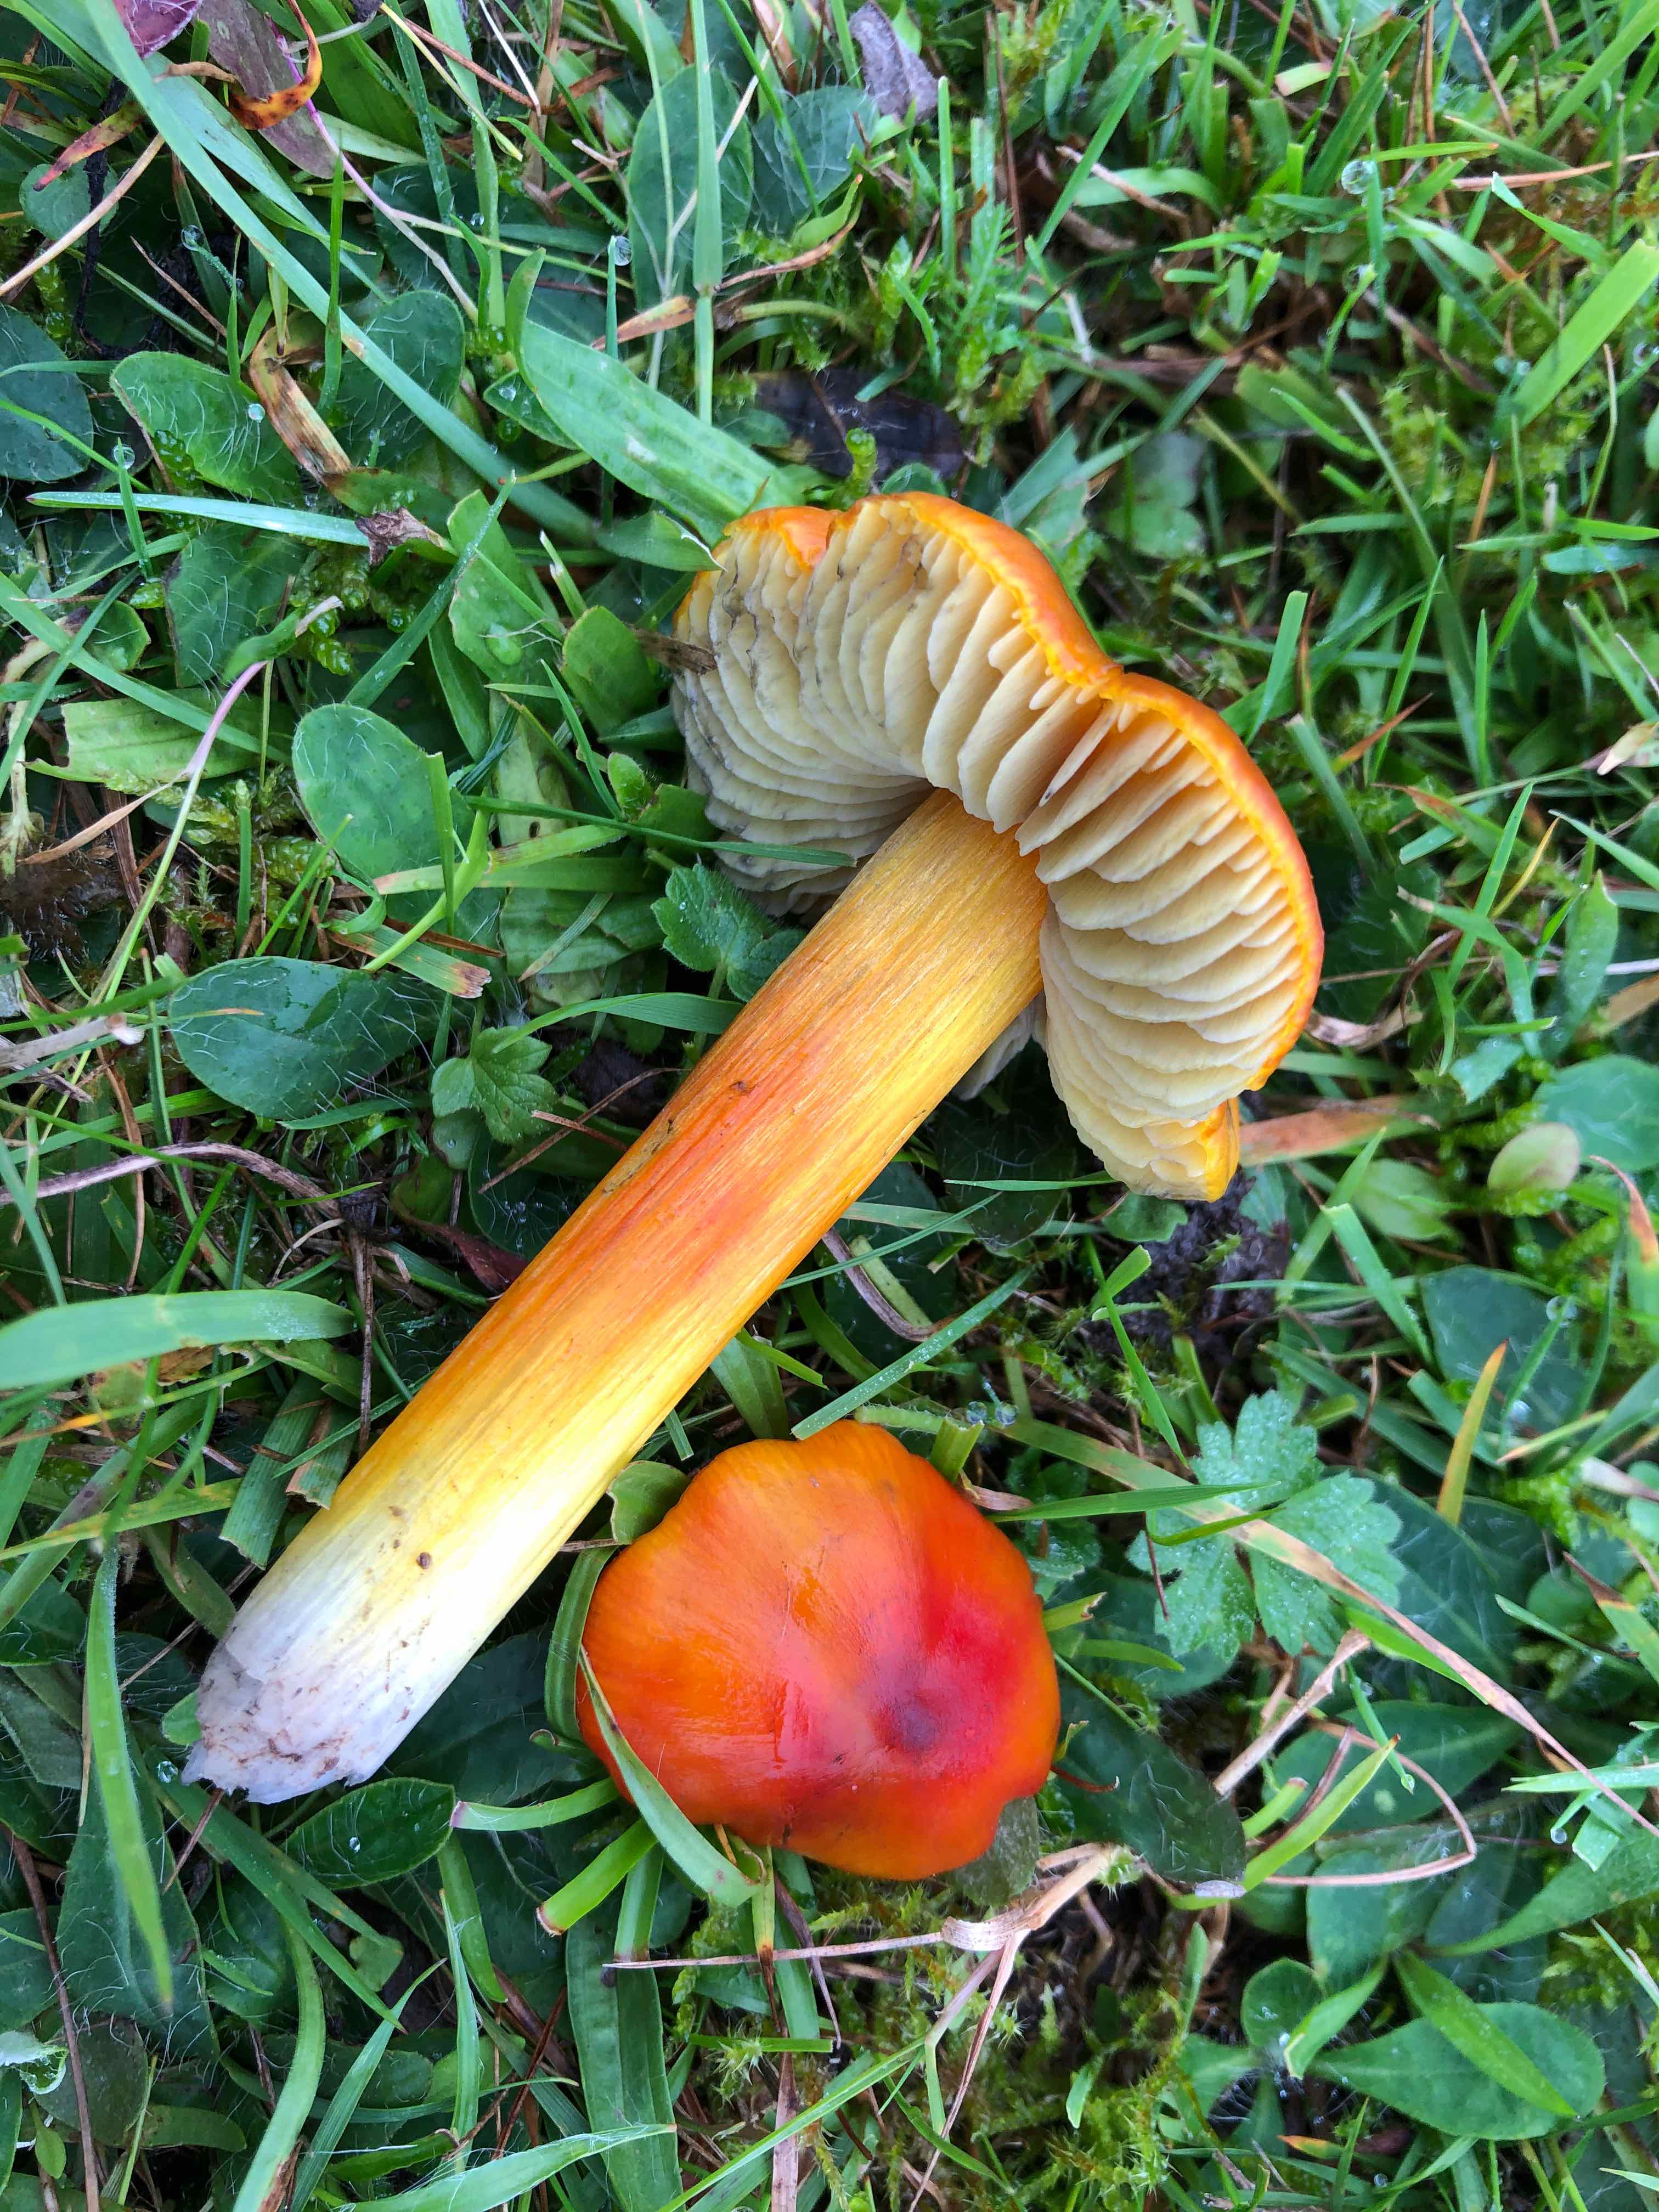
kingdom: Fungi
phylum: Basidiomycota
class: Agaricomycetes
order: Agaricales
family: Hygrophoraceae
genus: Hygrocybe
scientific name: Hygrocybe conica
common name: kegle-vokshat
